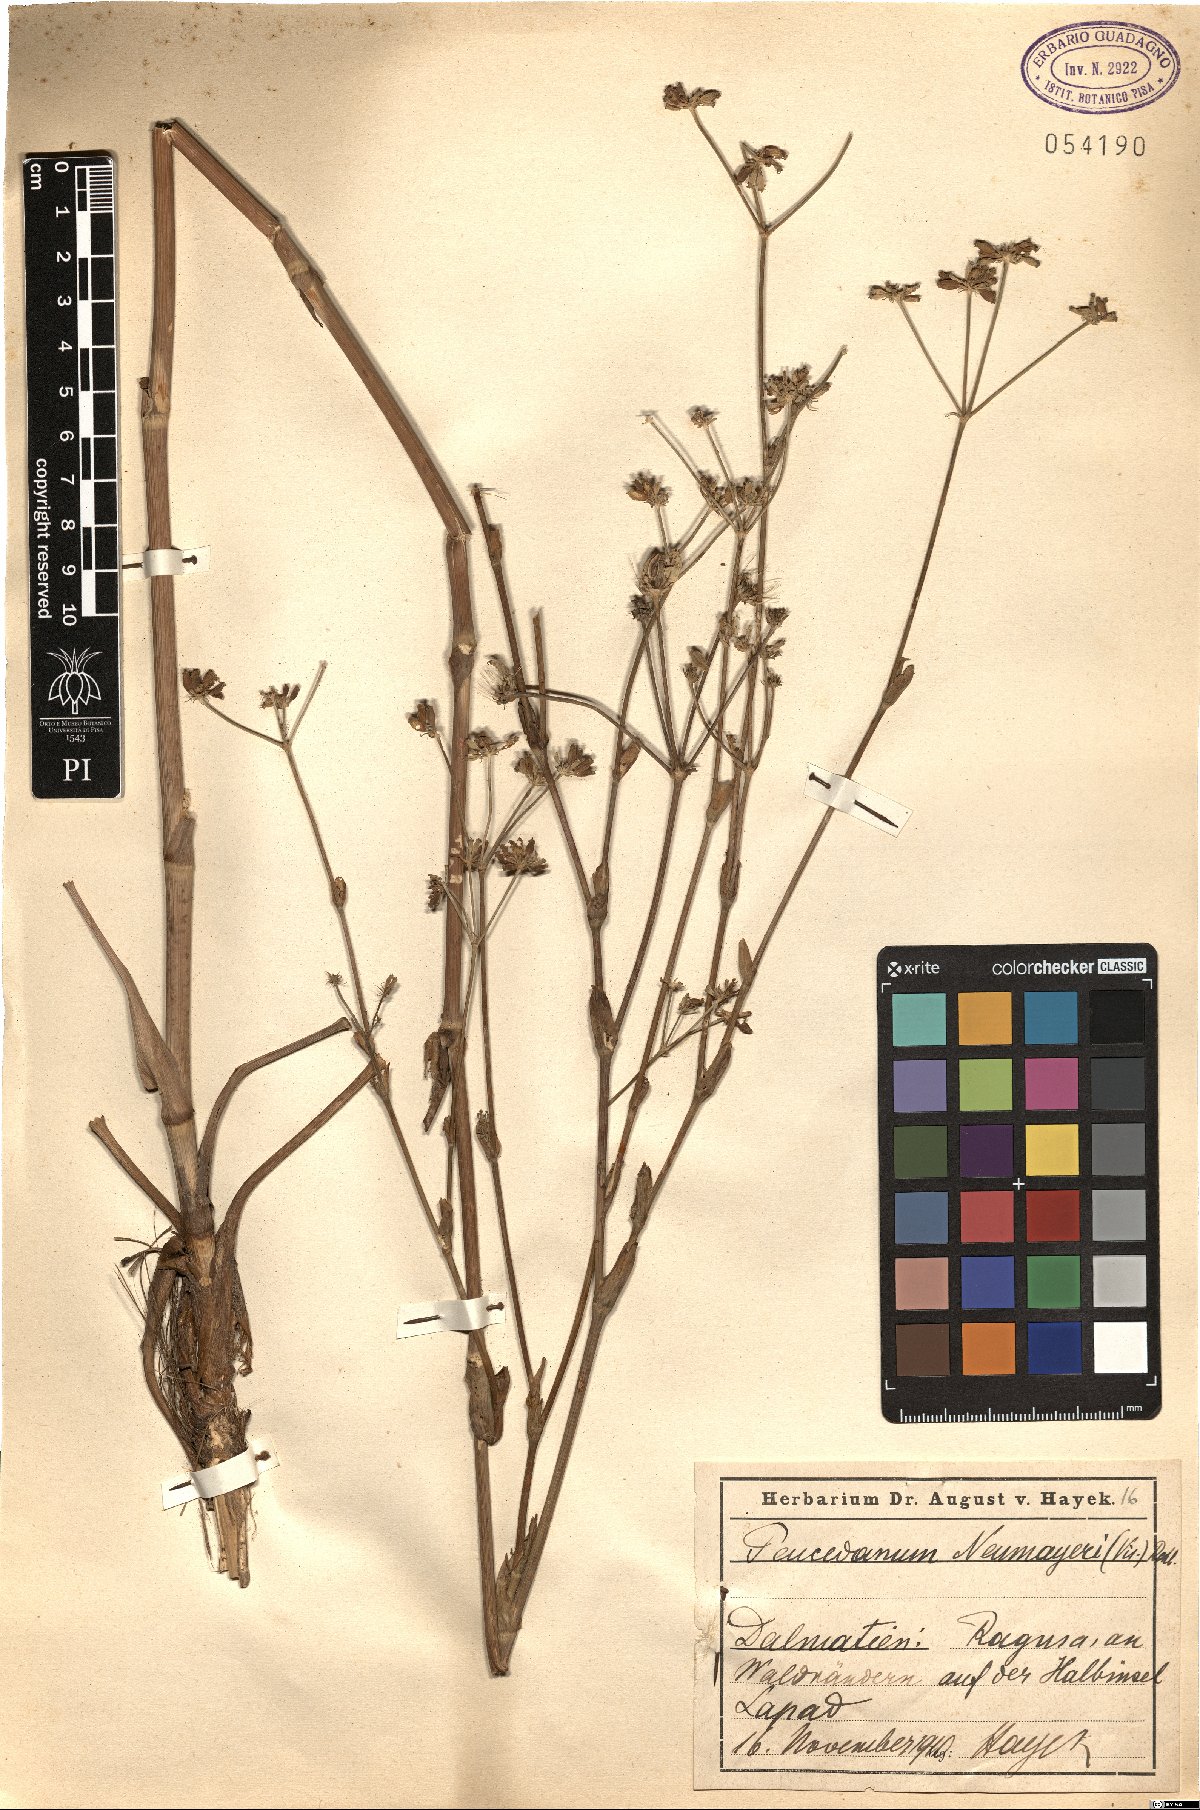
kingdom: Plantae
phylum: Tracheophyta
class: Magnoliopsida
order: Apiales
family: Apiaceae
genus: Taeniopetalum
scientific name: Taeniopetalum arenarium
